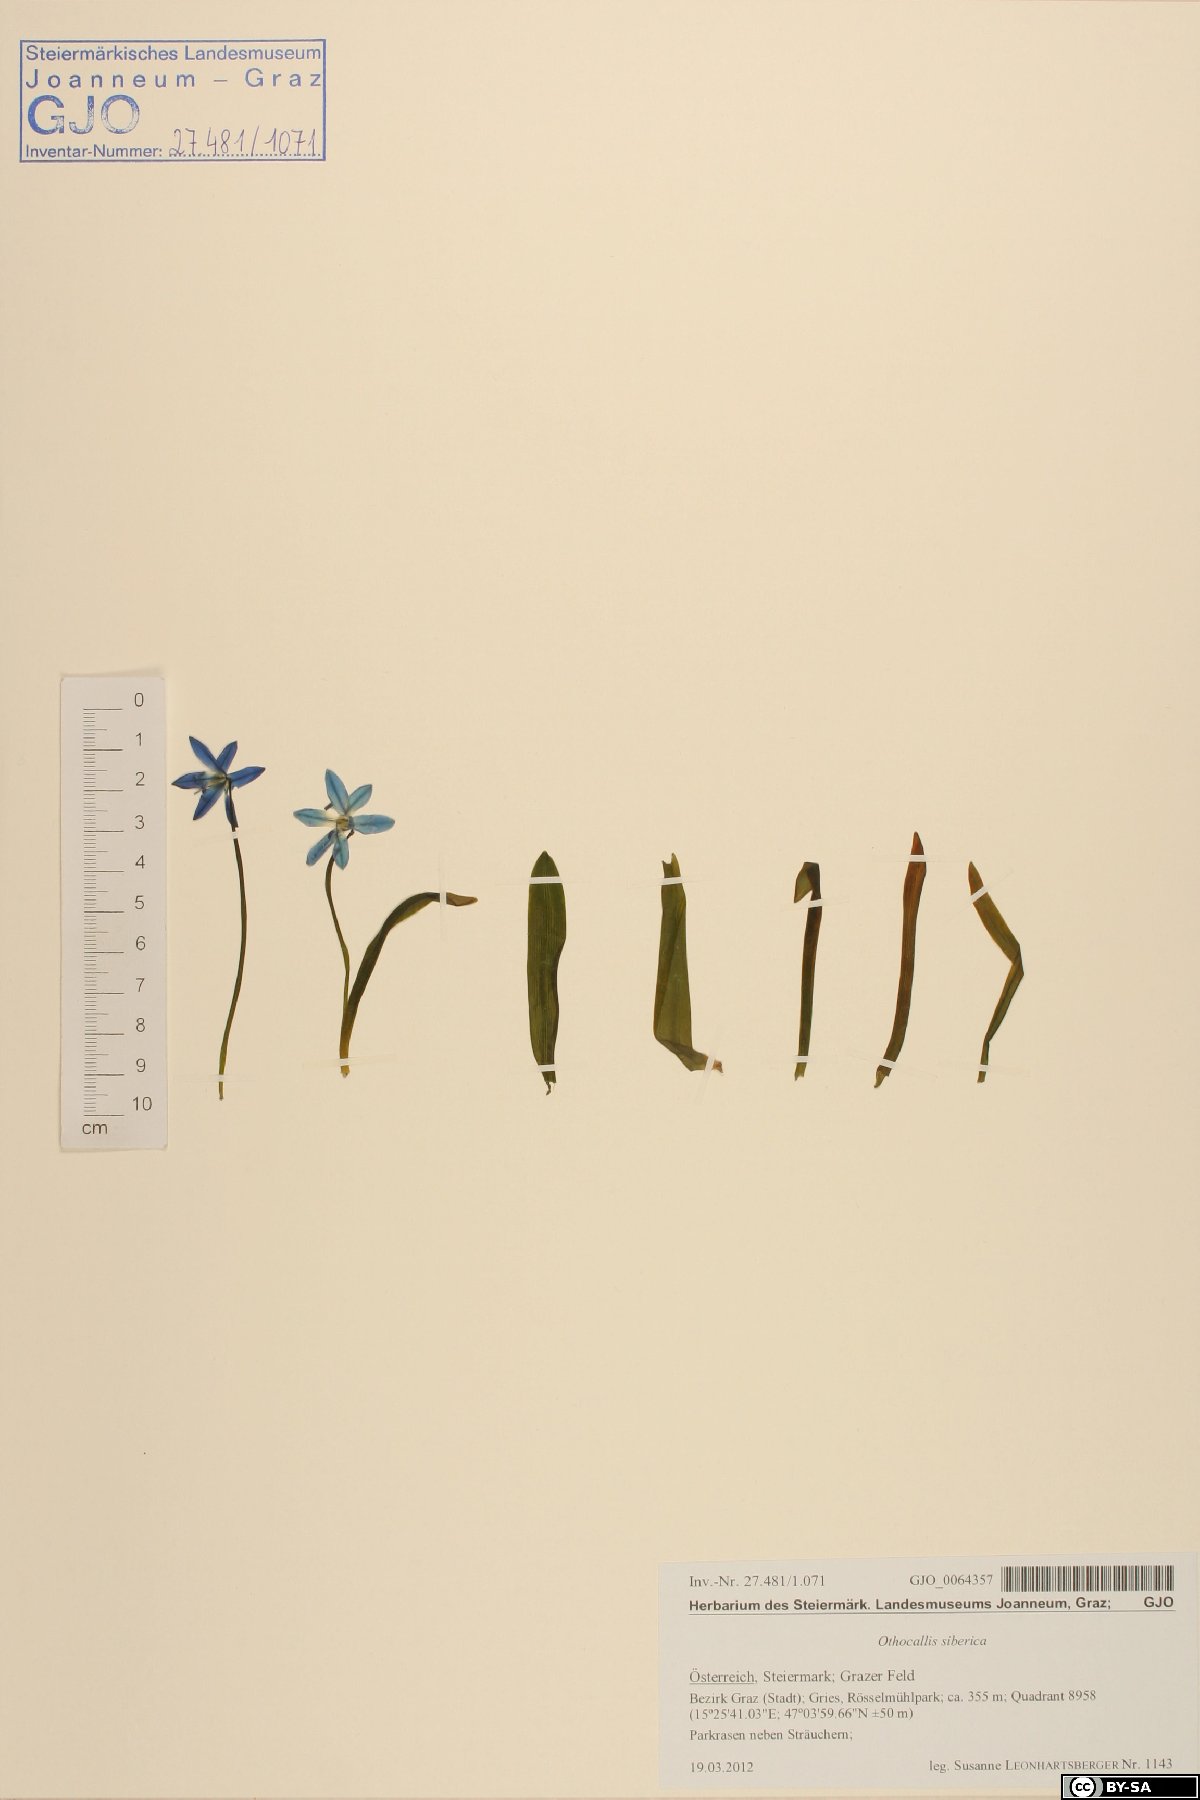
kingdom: Plantae
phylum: Tracheophyta
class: Liliopsida
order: Asparagales
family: Asparagaceae
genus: Scilla
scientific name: Scilla siberica
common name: Siberian squill
